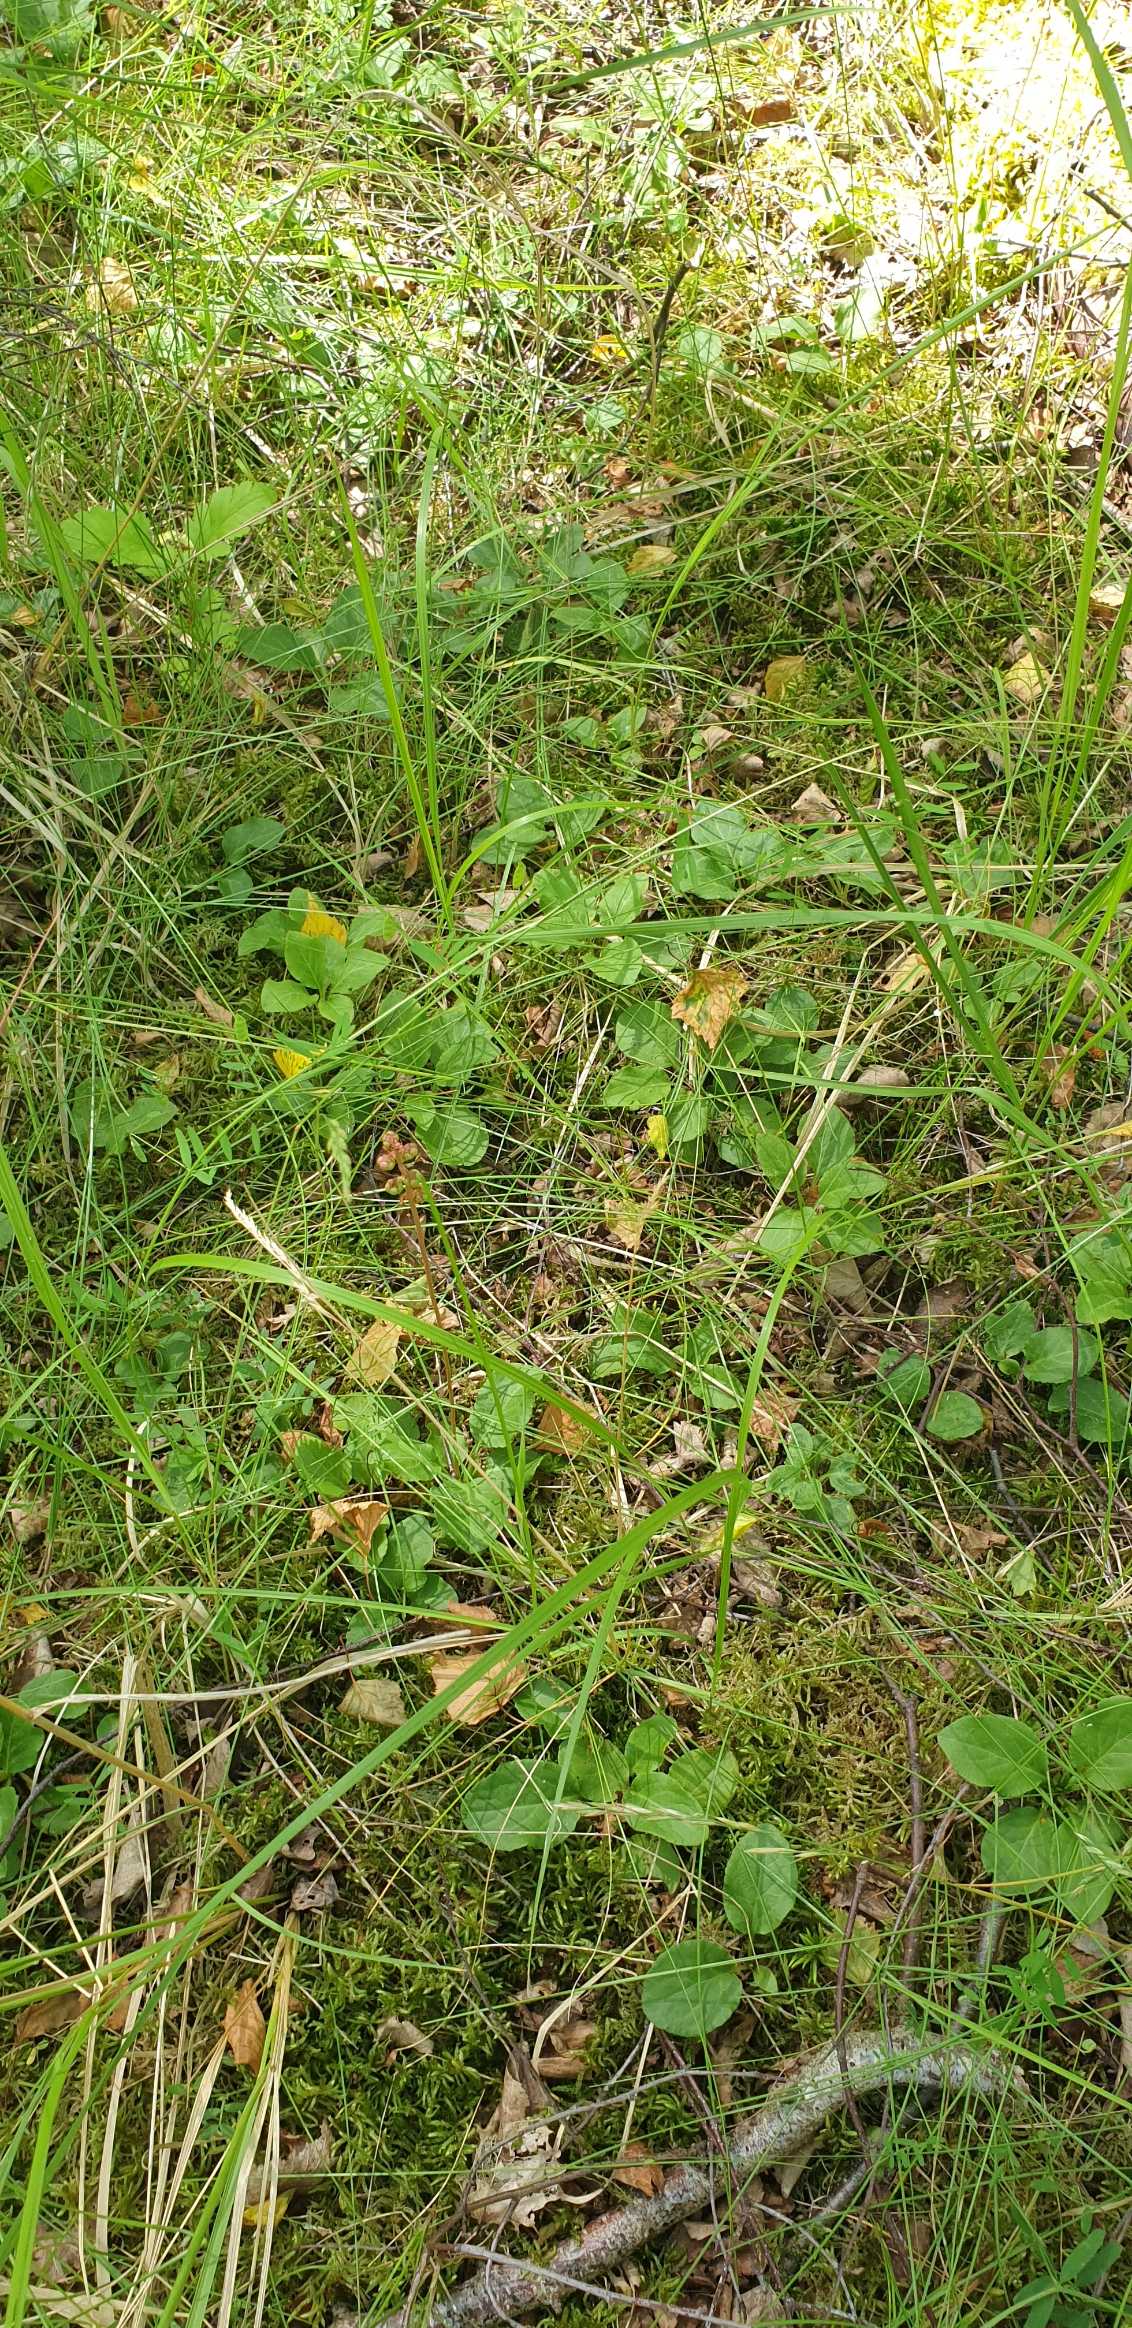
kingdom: Plantae
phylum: Tracheophyta
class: Magnoliopsida
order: Ericales
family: Ericaceae
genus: Pyrola
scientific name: Pyrola minor
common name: Liden vintergrøn
